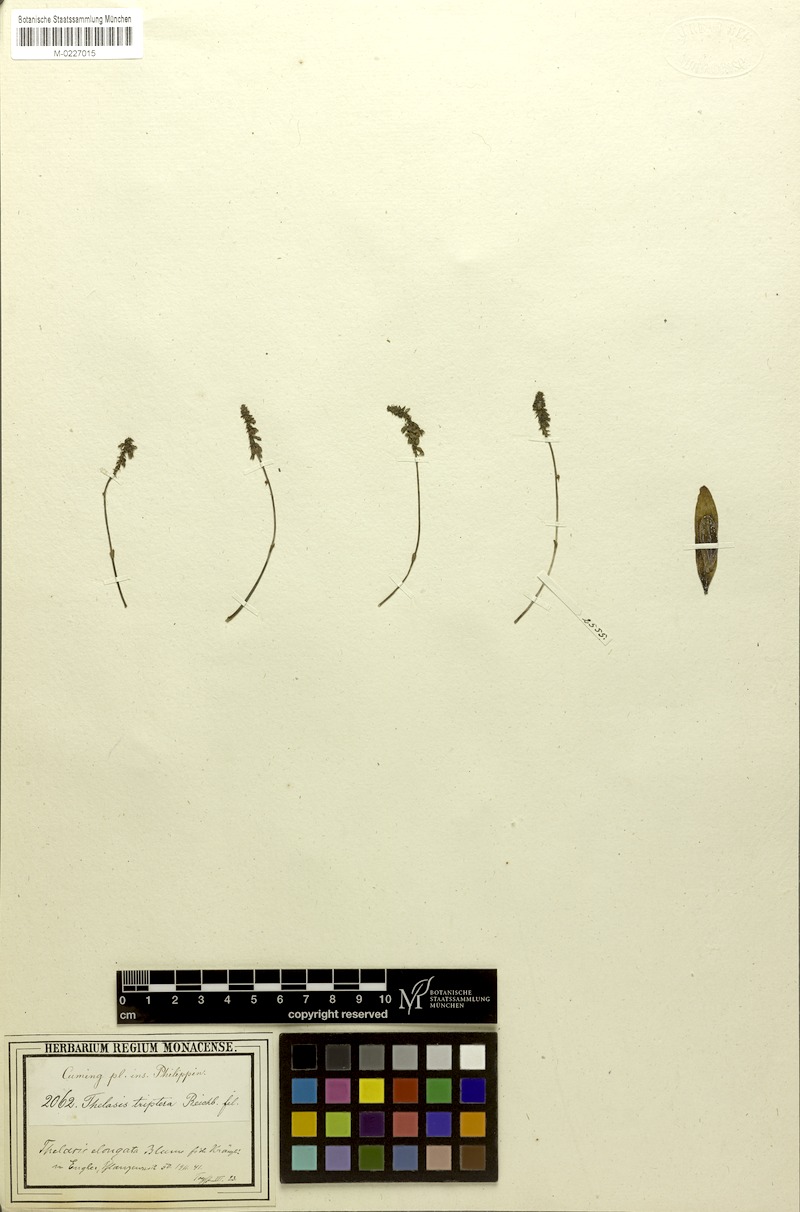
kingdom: Plantae
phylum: Tracheophyta
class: Liliopsida
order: Asparagales
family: Orchidaceae
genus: Thelasis
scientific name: Thelasis pygmaea
